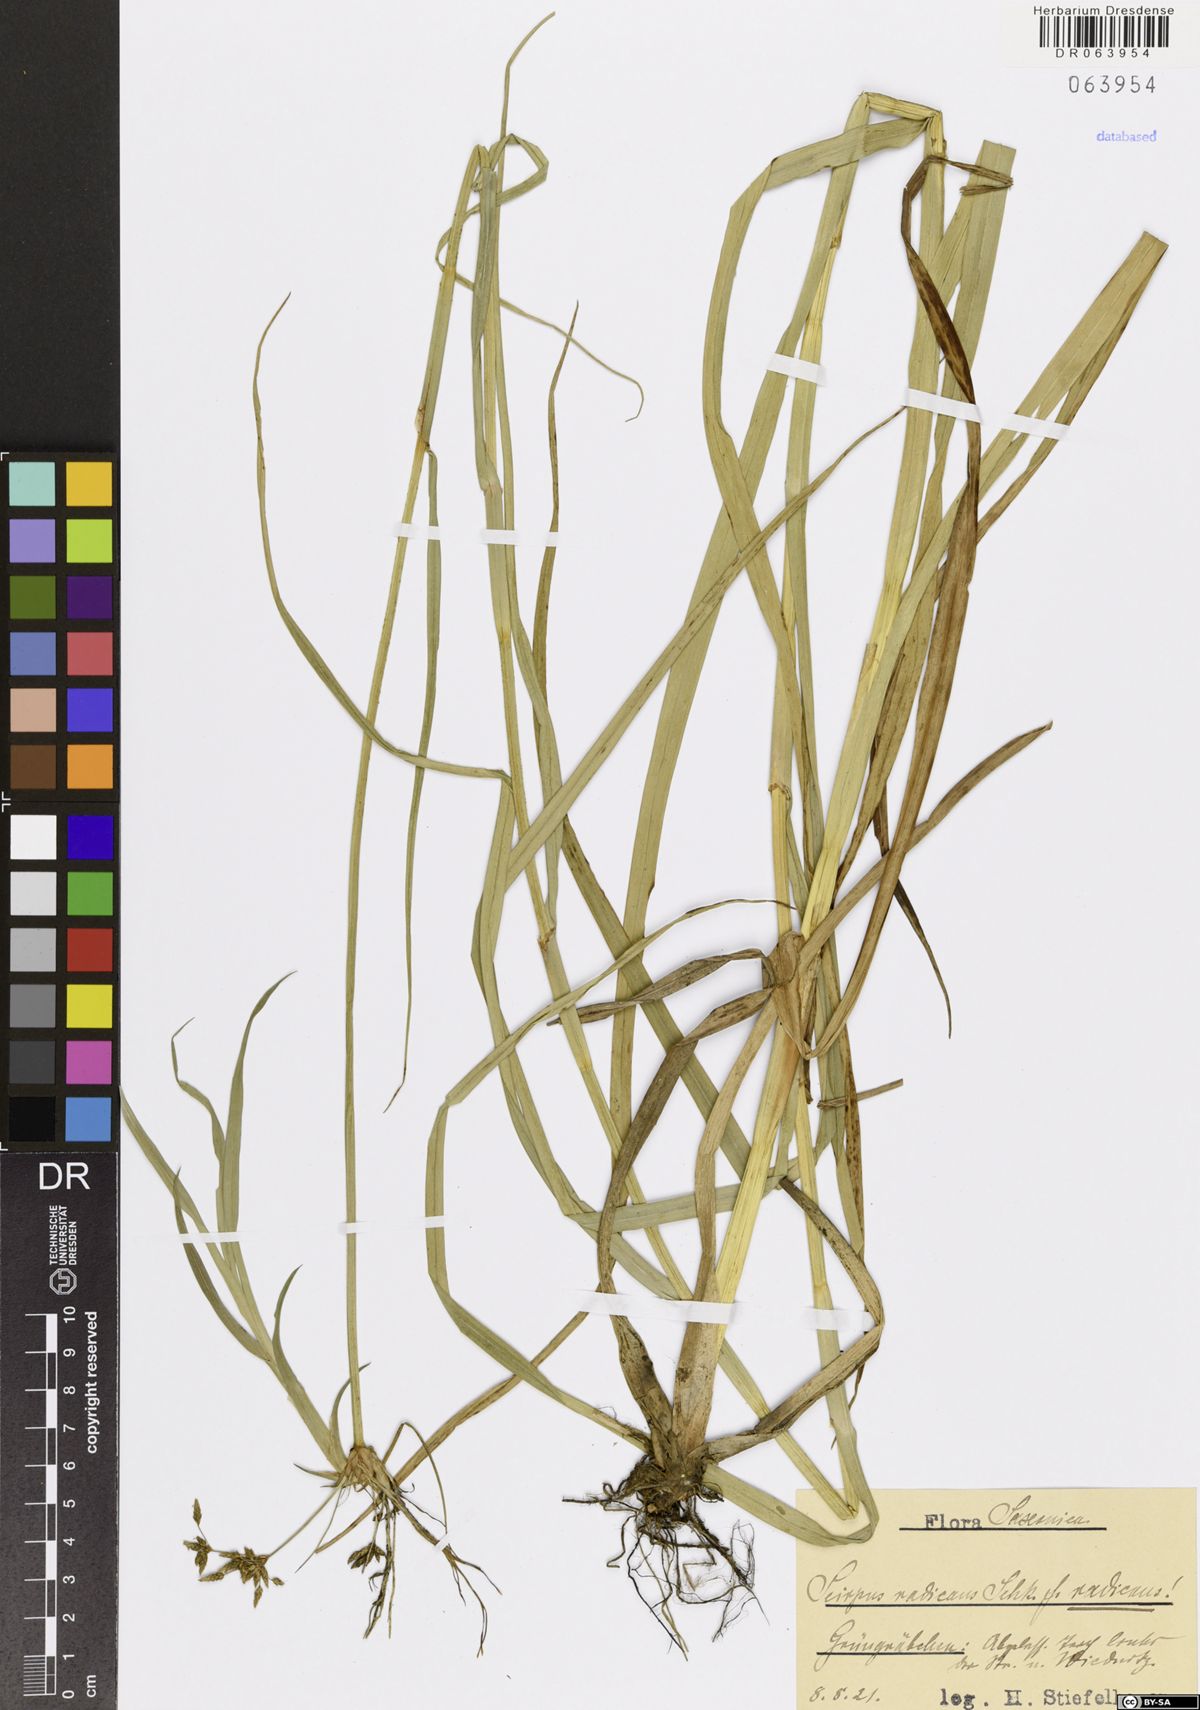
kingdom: Plantae
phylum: Tracheophyta
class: Liliopsida
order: Poales
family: Cyperaceae
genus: Scirpus
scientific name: Scirpus radicans
